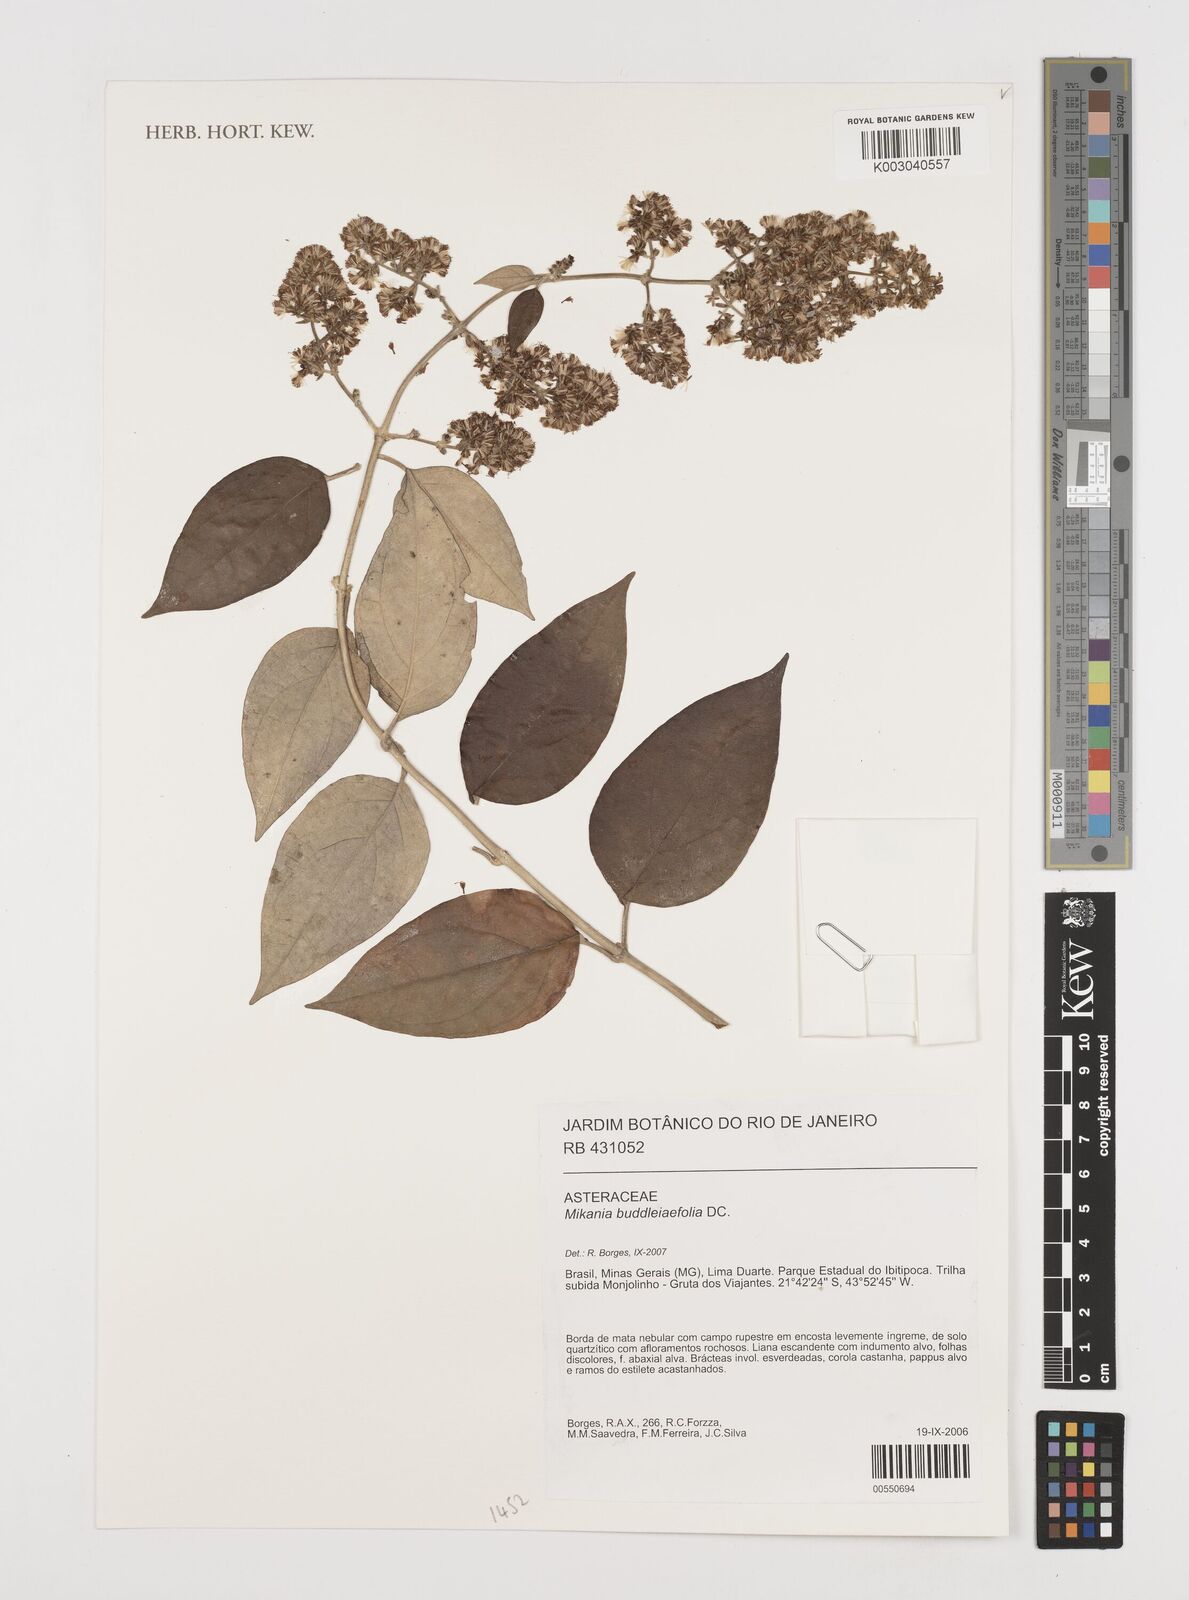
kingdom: Plantae
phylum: Tracheophyta
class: Magnoliopsida
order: Asterales
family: Asteraceae
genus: Mikania
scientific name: Mikania buddlejifolia
